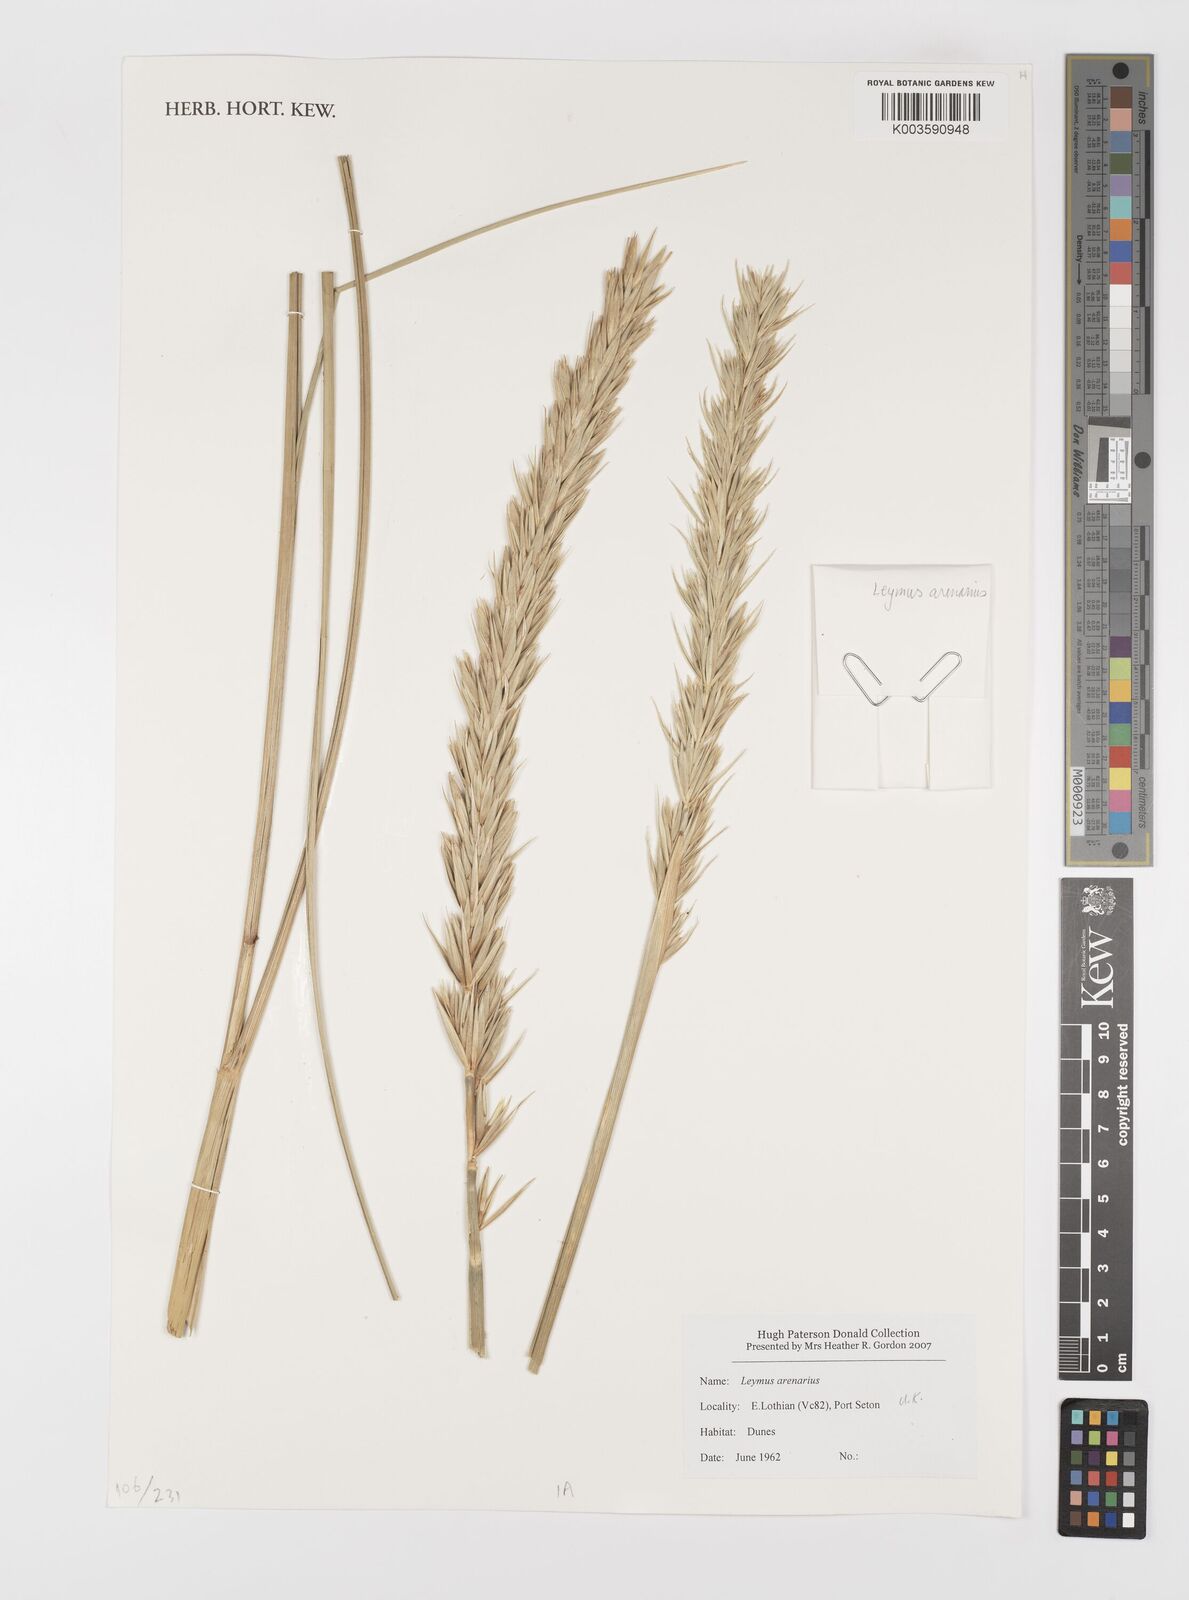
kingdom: Plantae
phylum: Tracheophyta
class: Liliopsida
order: Poales
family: Poaceae
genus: Leymus
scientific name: Leymus arenarius
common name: Lyme-grass
